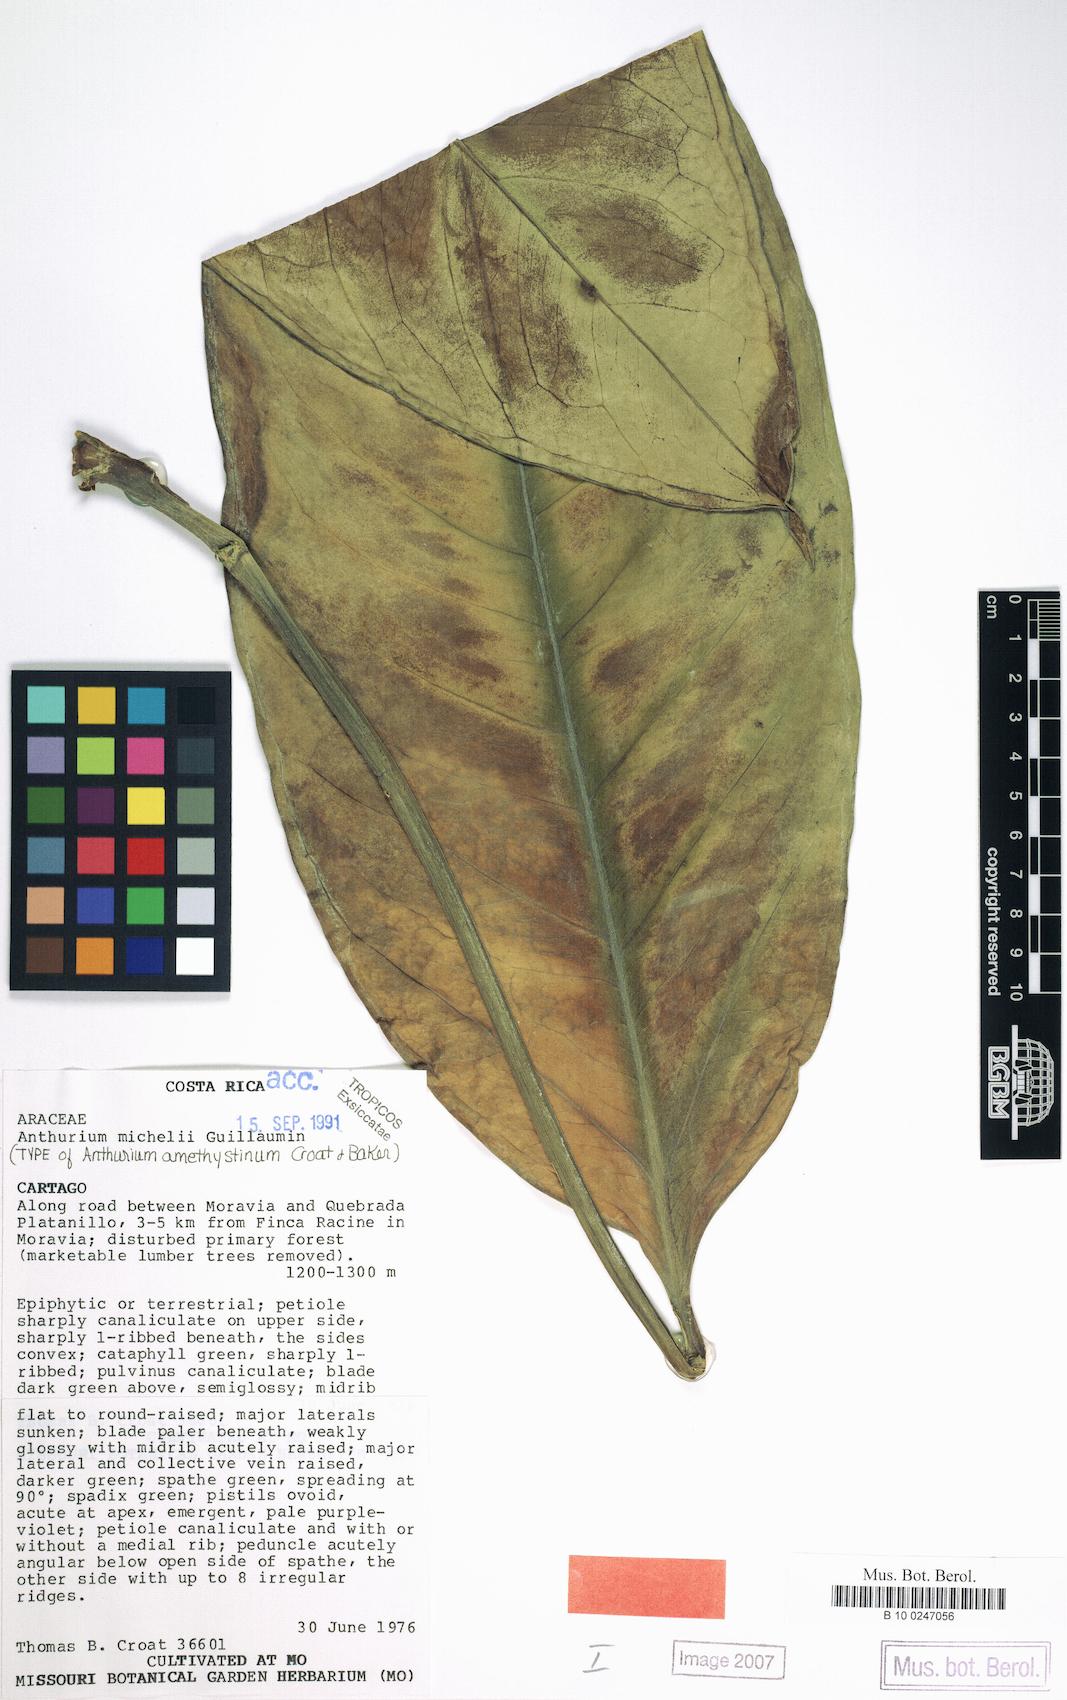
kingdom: Plantae
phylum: Tracheophyta
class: Liliopsida
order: Alismatales
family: Araceae
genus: Anthurium
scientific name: Anthurium michelii
